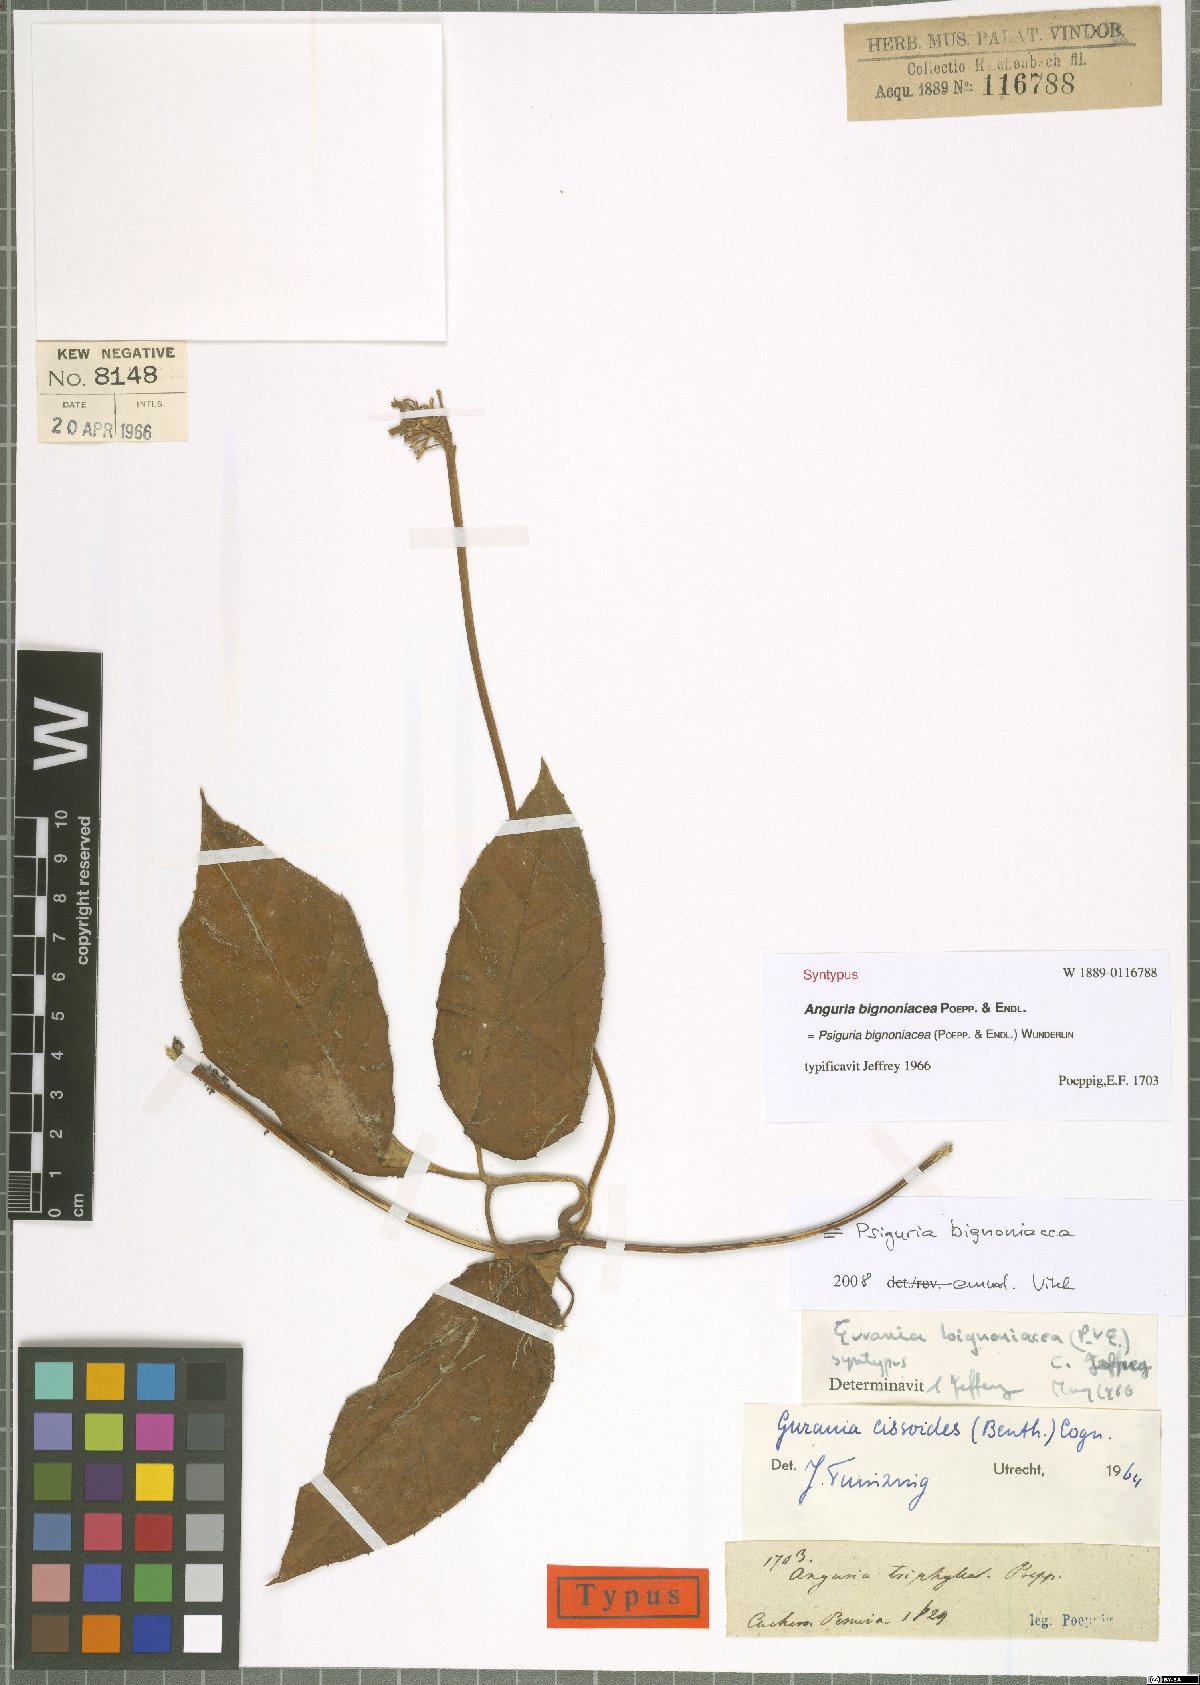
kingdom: Plantae
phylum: Tracheophyta
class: Magnoliopsida
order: Cucurbitales
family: Cucurbitaceae
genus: Gurania
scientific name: Gurania bignoniacea
